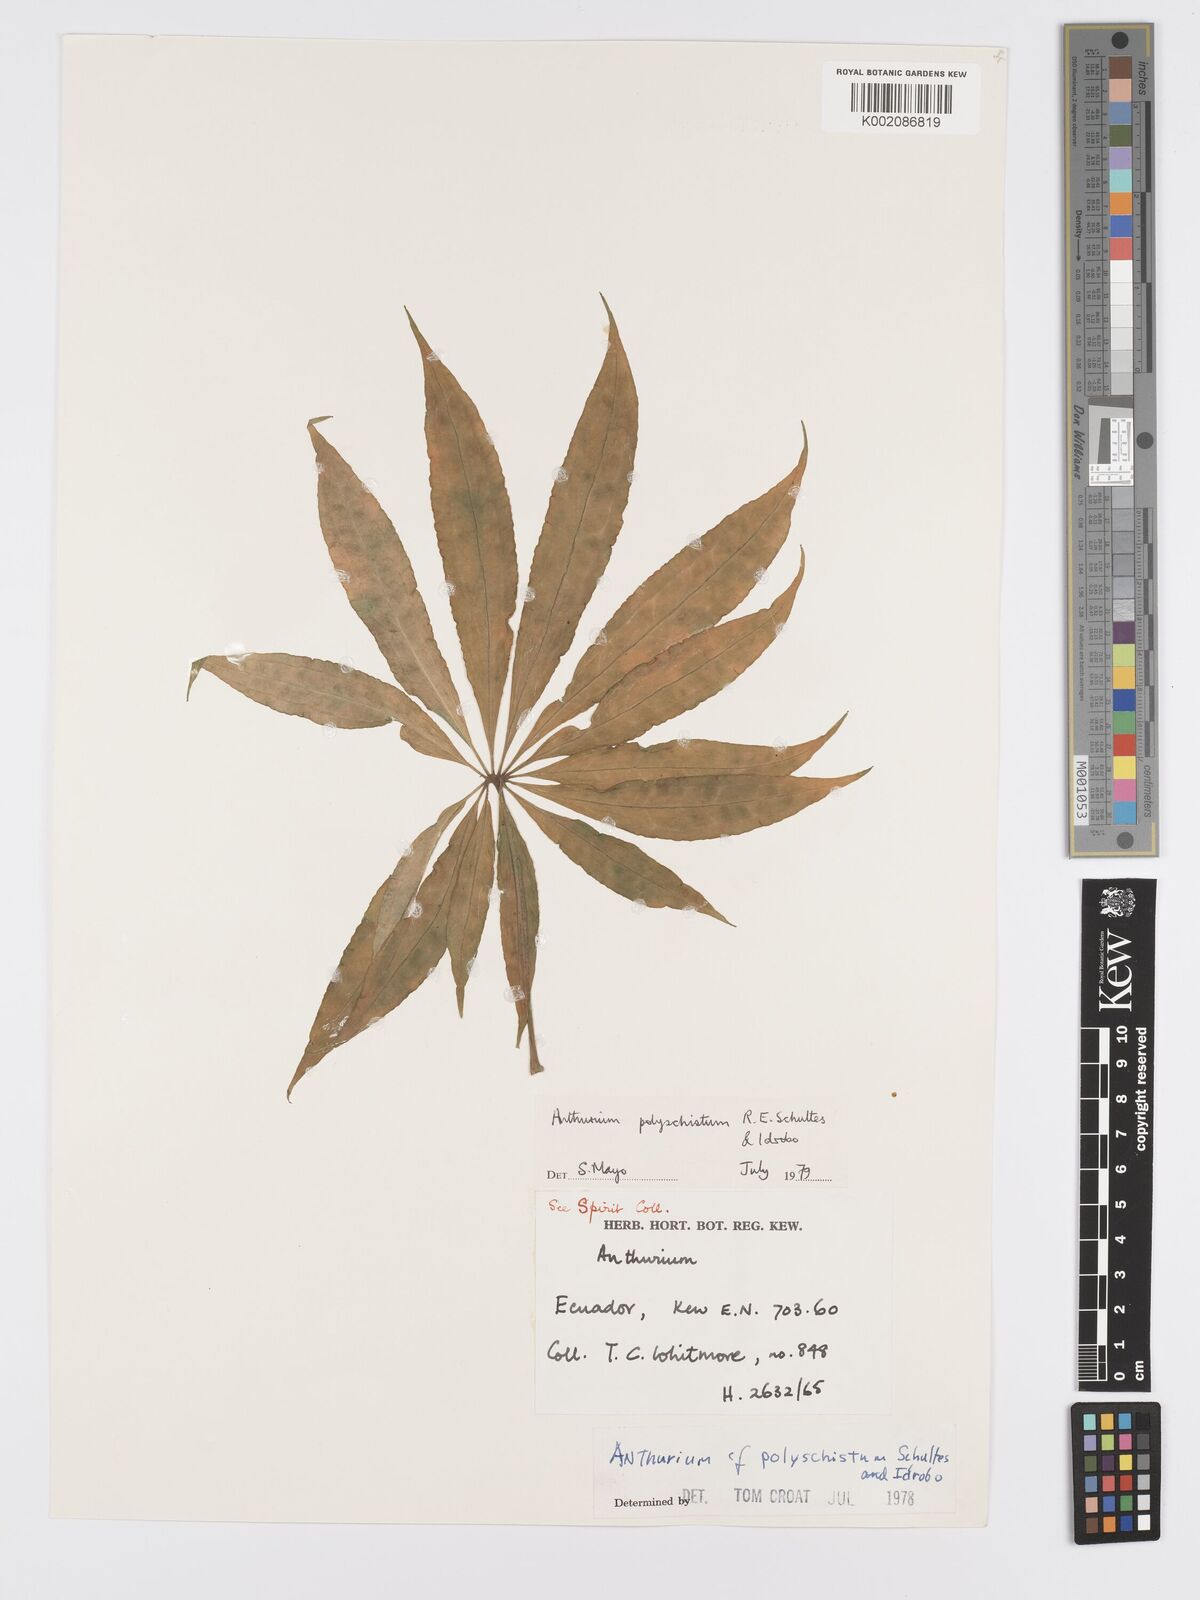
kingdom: Plantae
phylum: Tracheophyta
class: Liliopsida
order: Alismatales
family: Araceae
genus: Anthurium
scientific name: Anthurium polyschistum
